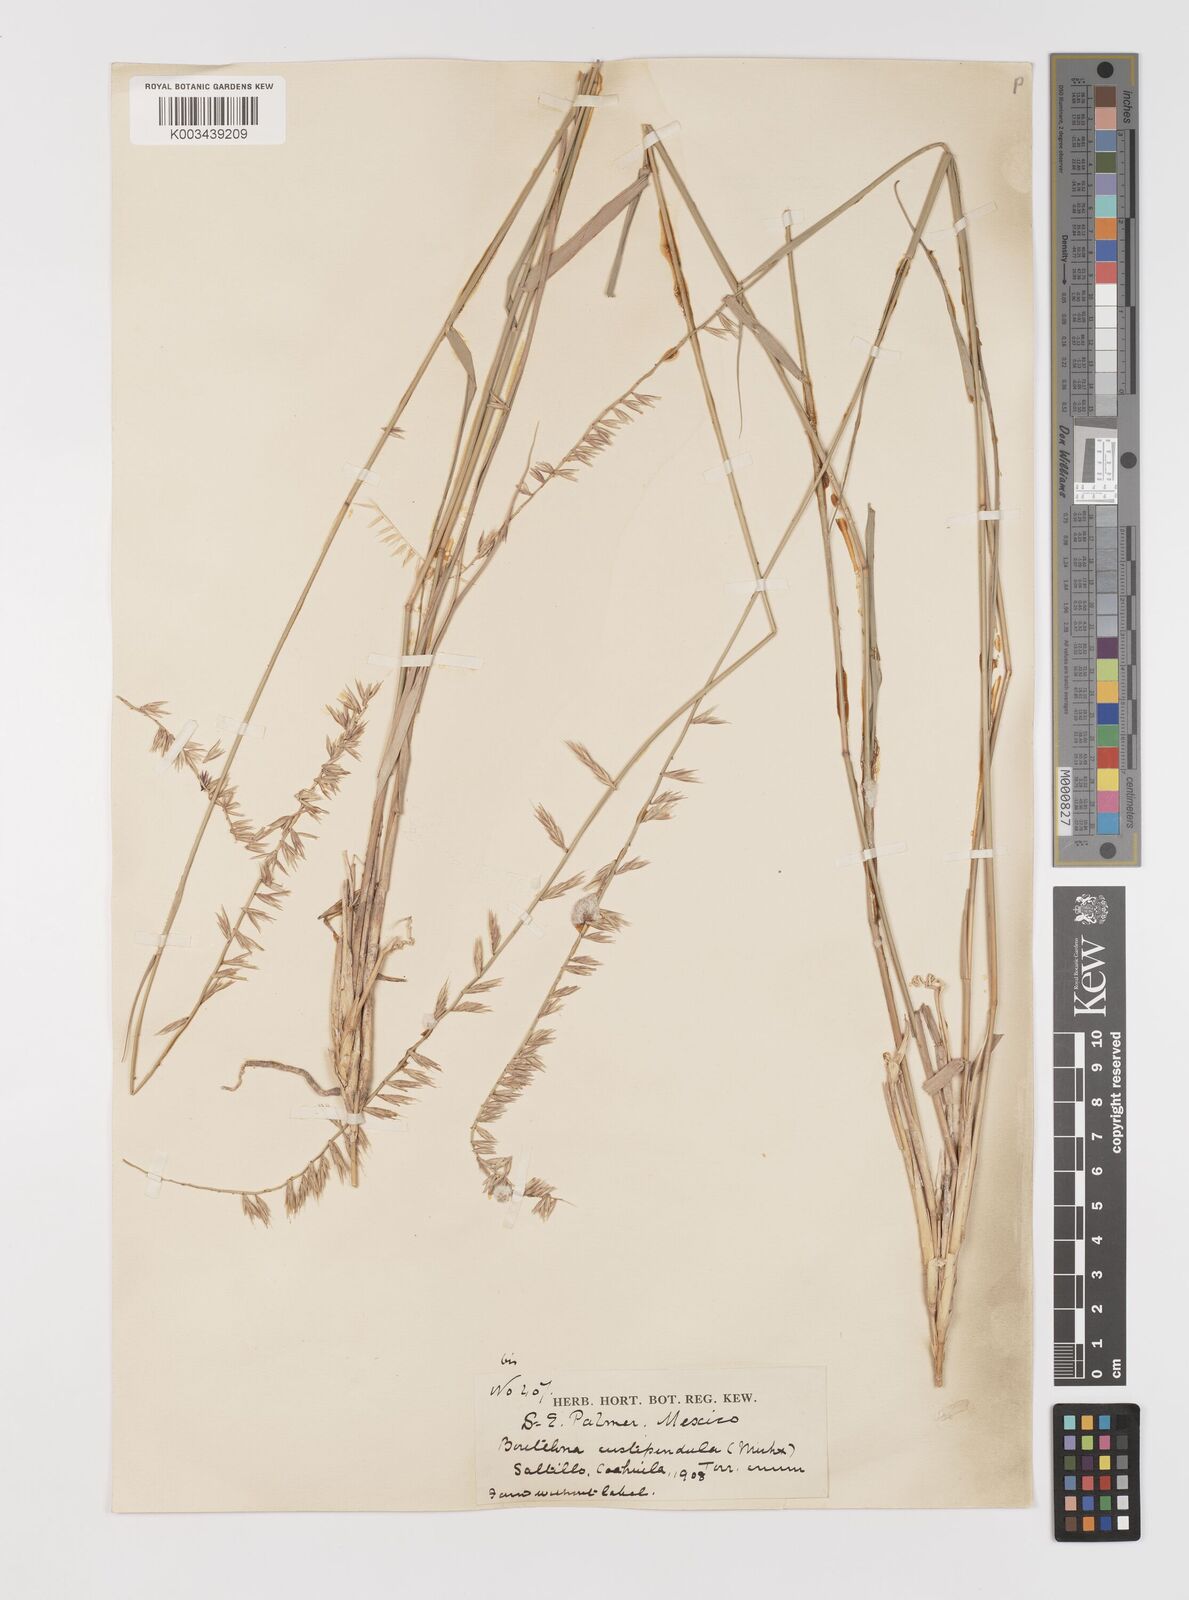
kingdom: Plantae
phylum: Tracheophyta
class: Liliopsida
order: Poales
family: Poaceae
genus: Bouteloua
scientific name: Bouteloua curtipendula
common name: Side-oats grama
